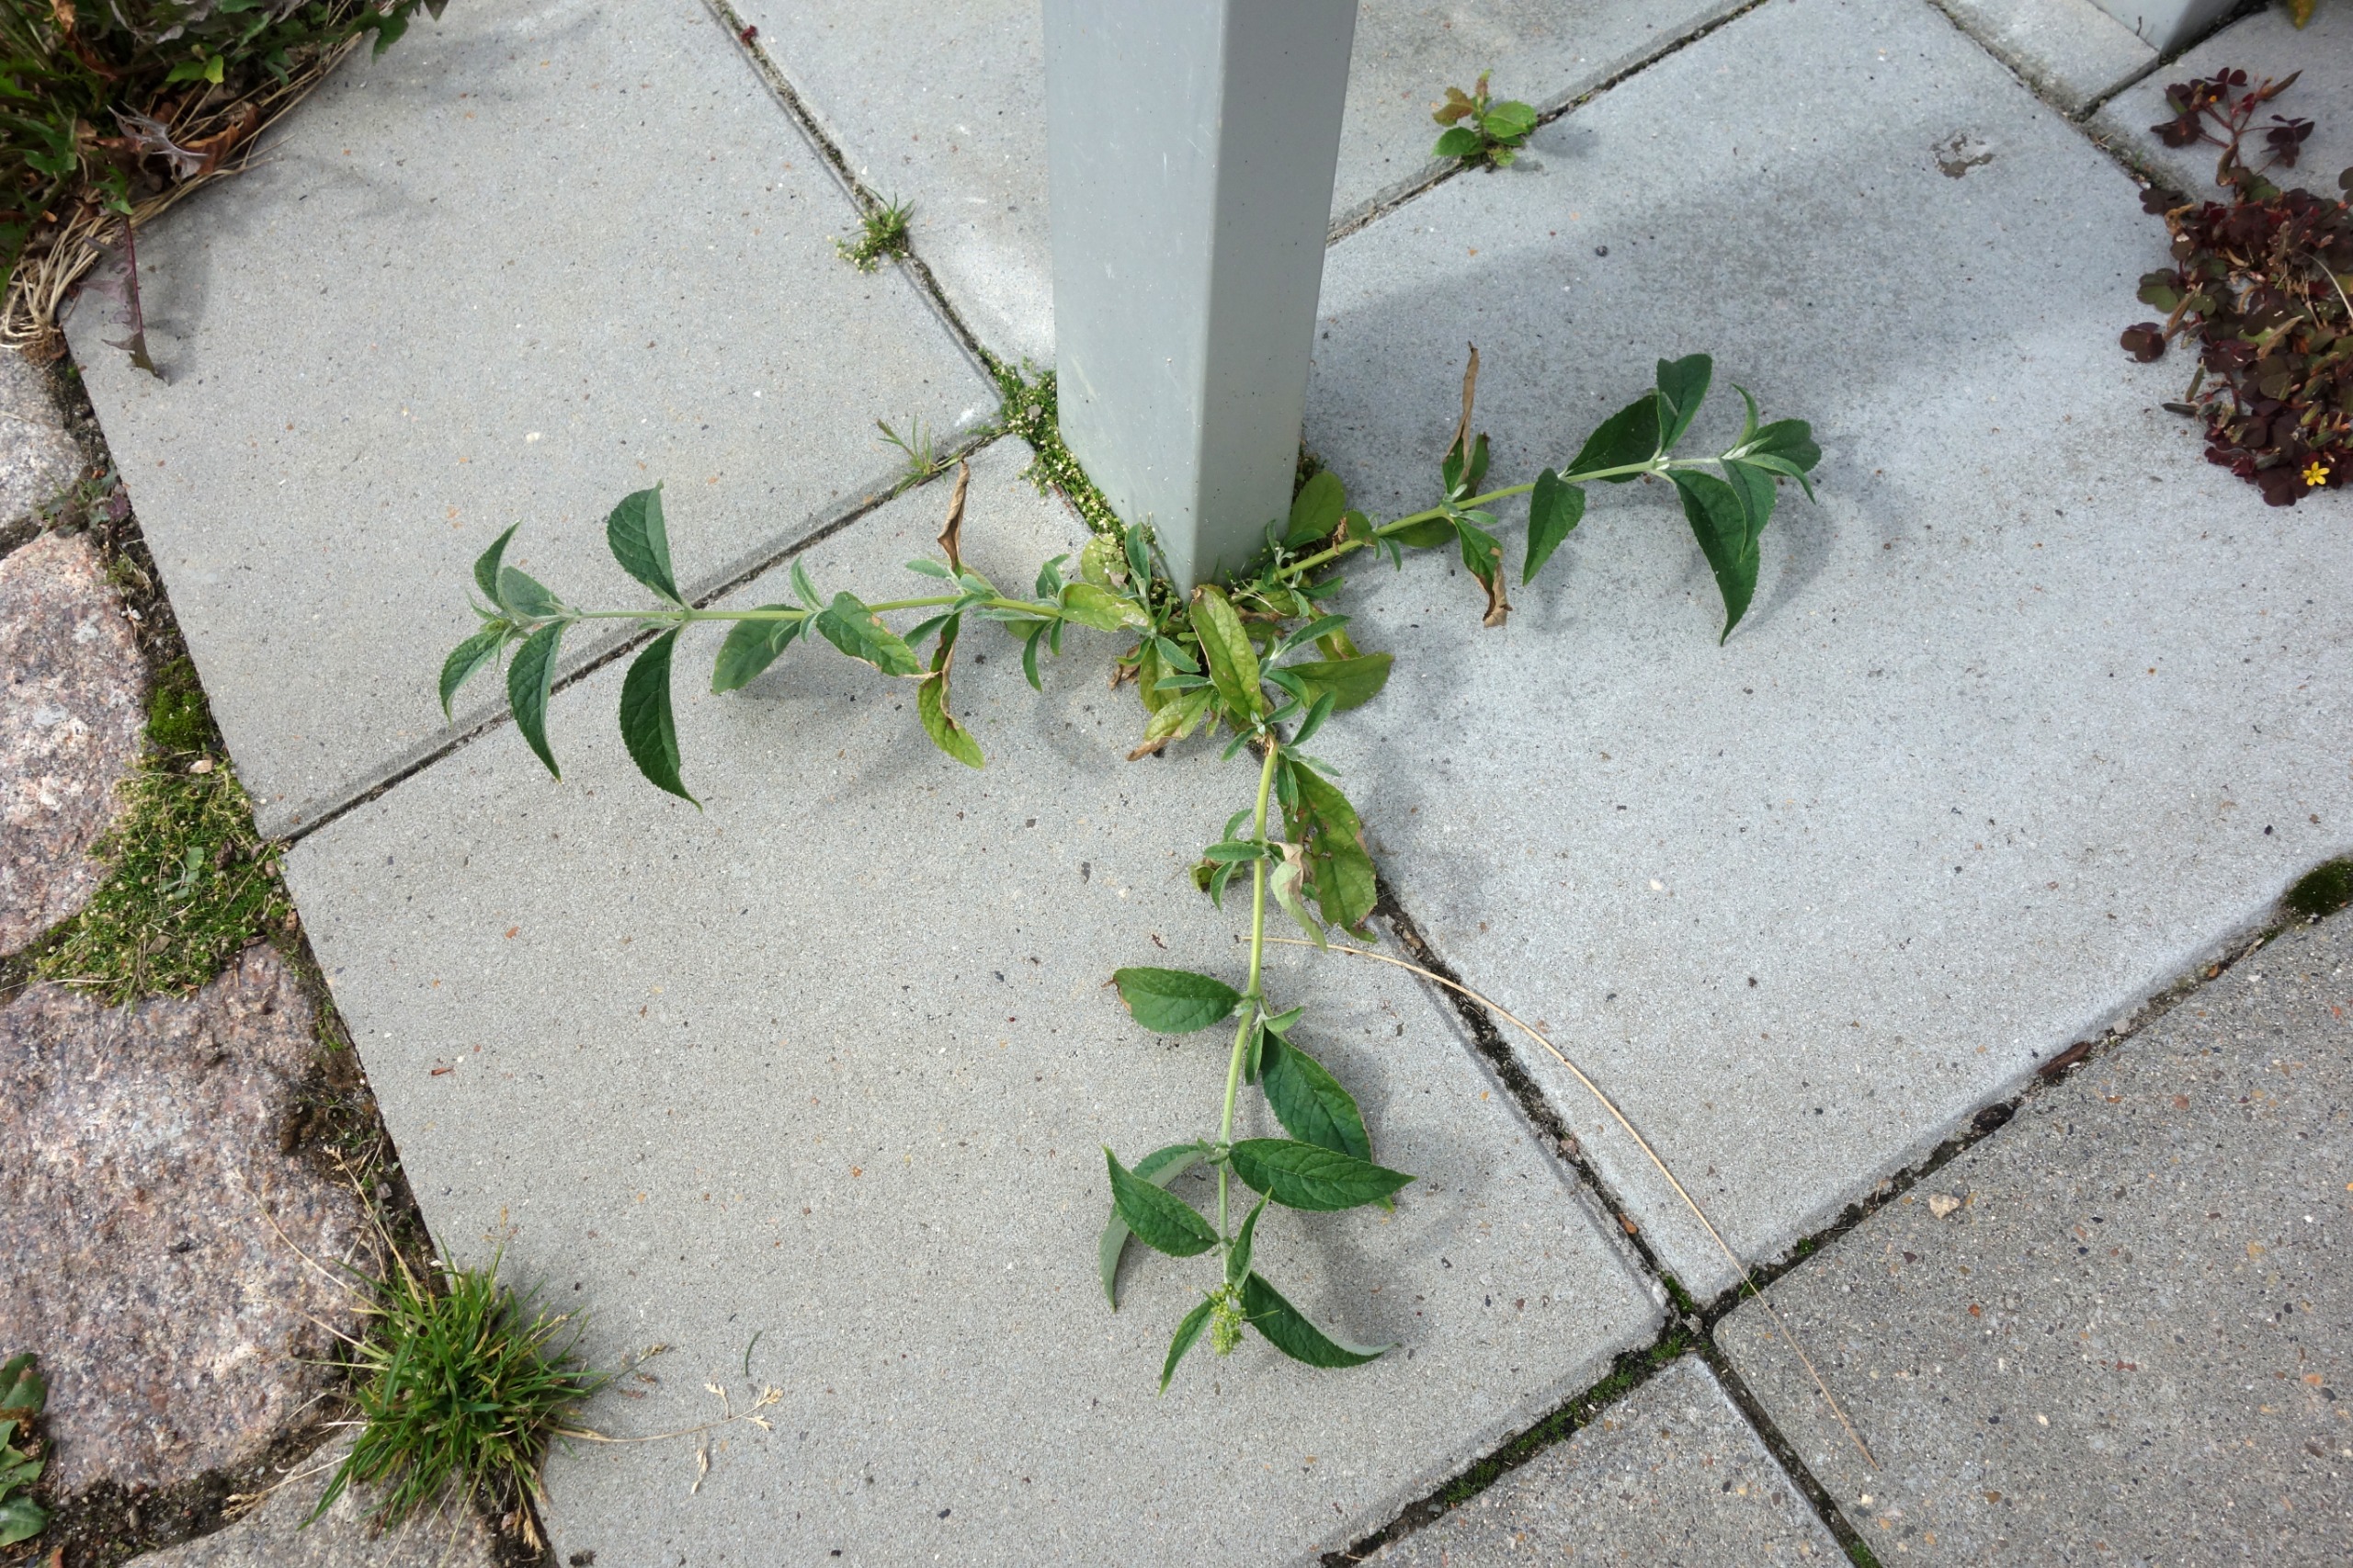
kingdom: Plantae
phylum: Tracheophyta
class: Magnoliopsida
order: Lamiales
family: Scrophulariaceae
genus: Buddleja
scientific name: Buddleja davidii
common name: Sommerfuglebusk
